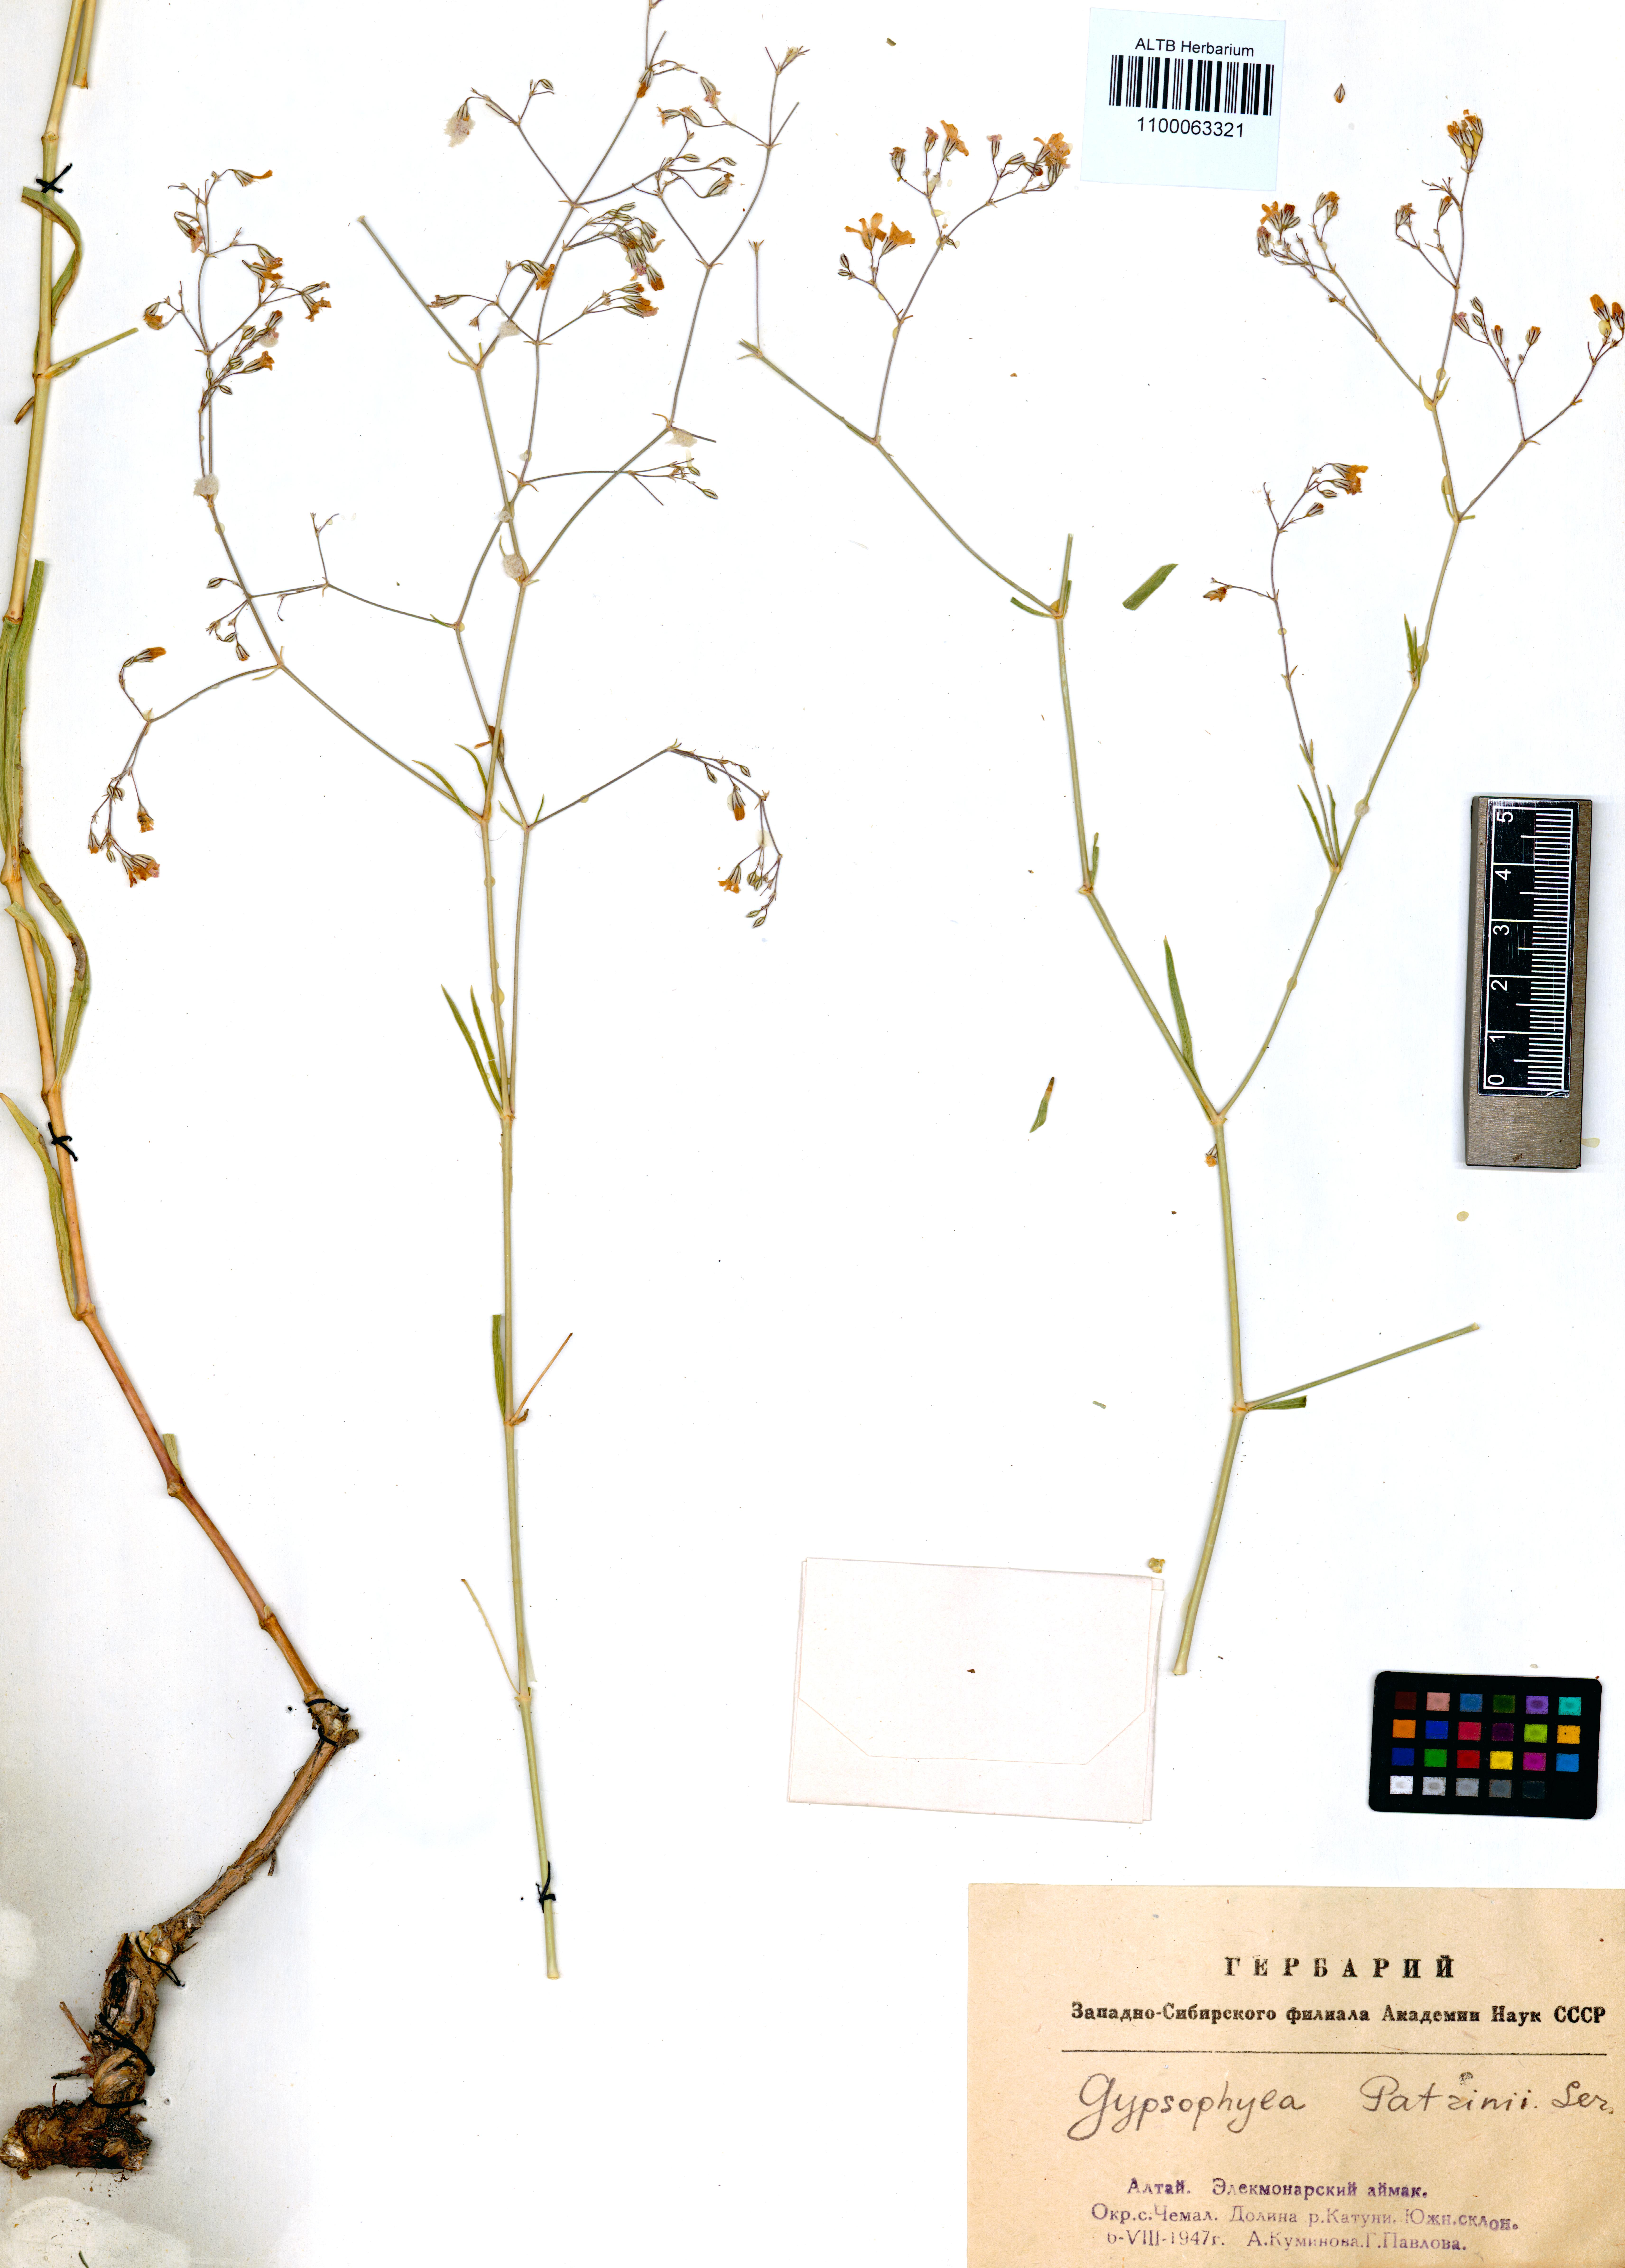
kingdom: Plantae
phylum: Tracheophyta
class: Magnoliopsida
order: Caryophyllales
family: Caryophyllaceae
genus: Gypsophila
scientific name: Gypsophila patrinii
